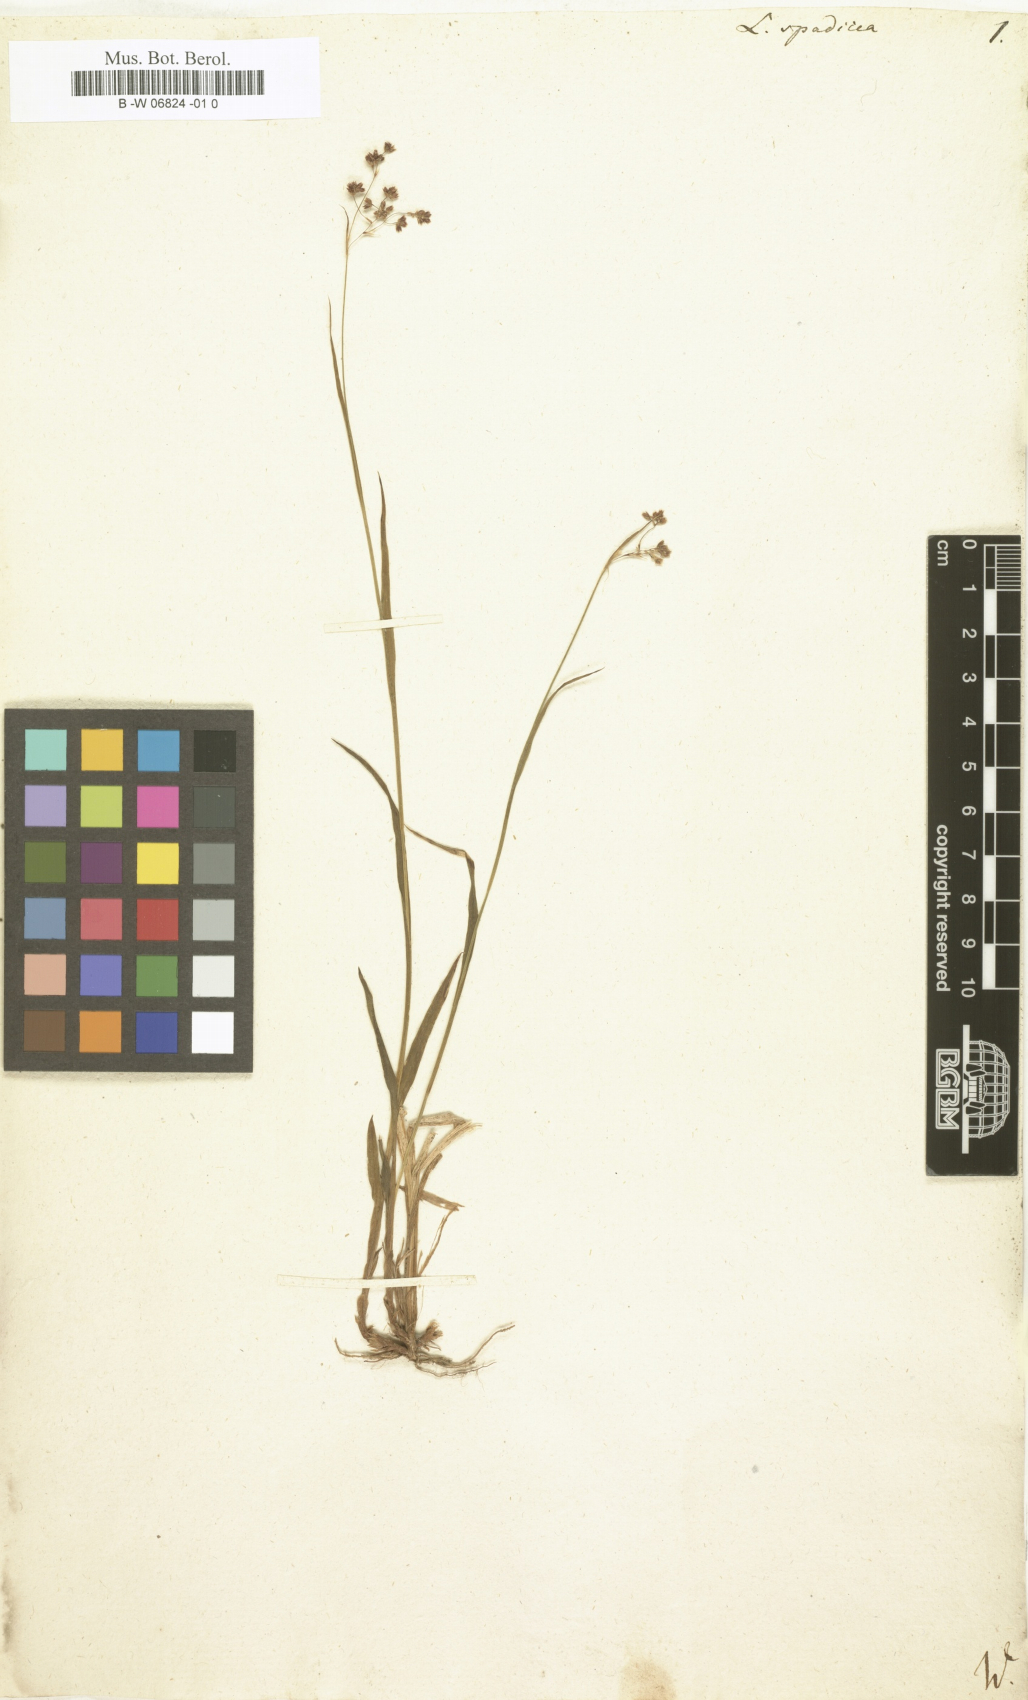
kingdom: Plantae
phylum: Tracheophyta
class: Liliopsida
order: Poales
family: Juncaceae
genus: Luzula
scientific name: Luzula
